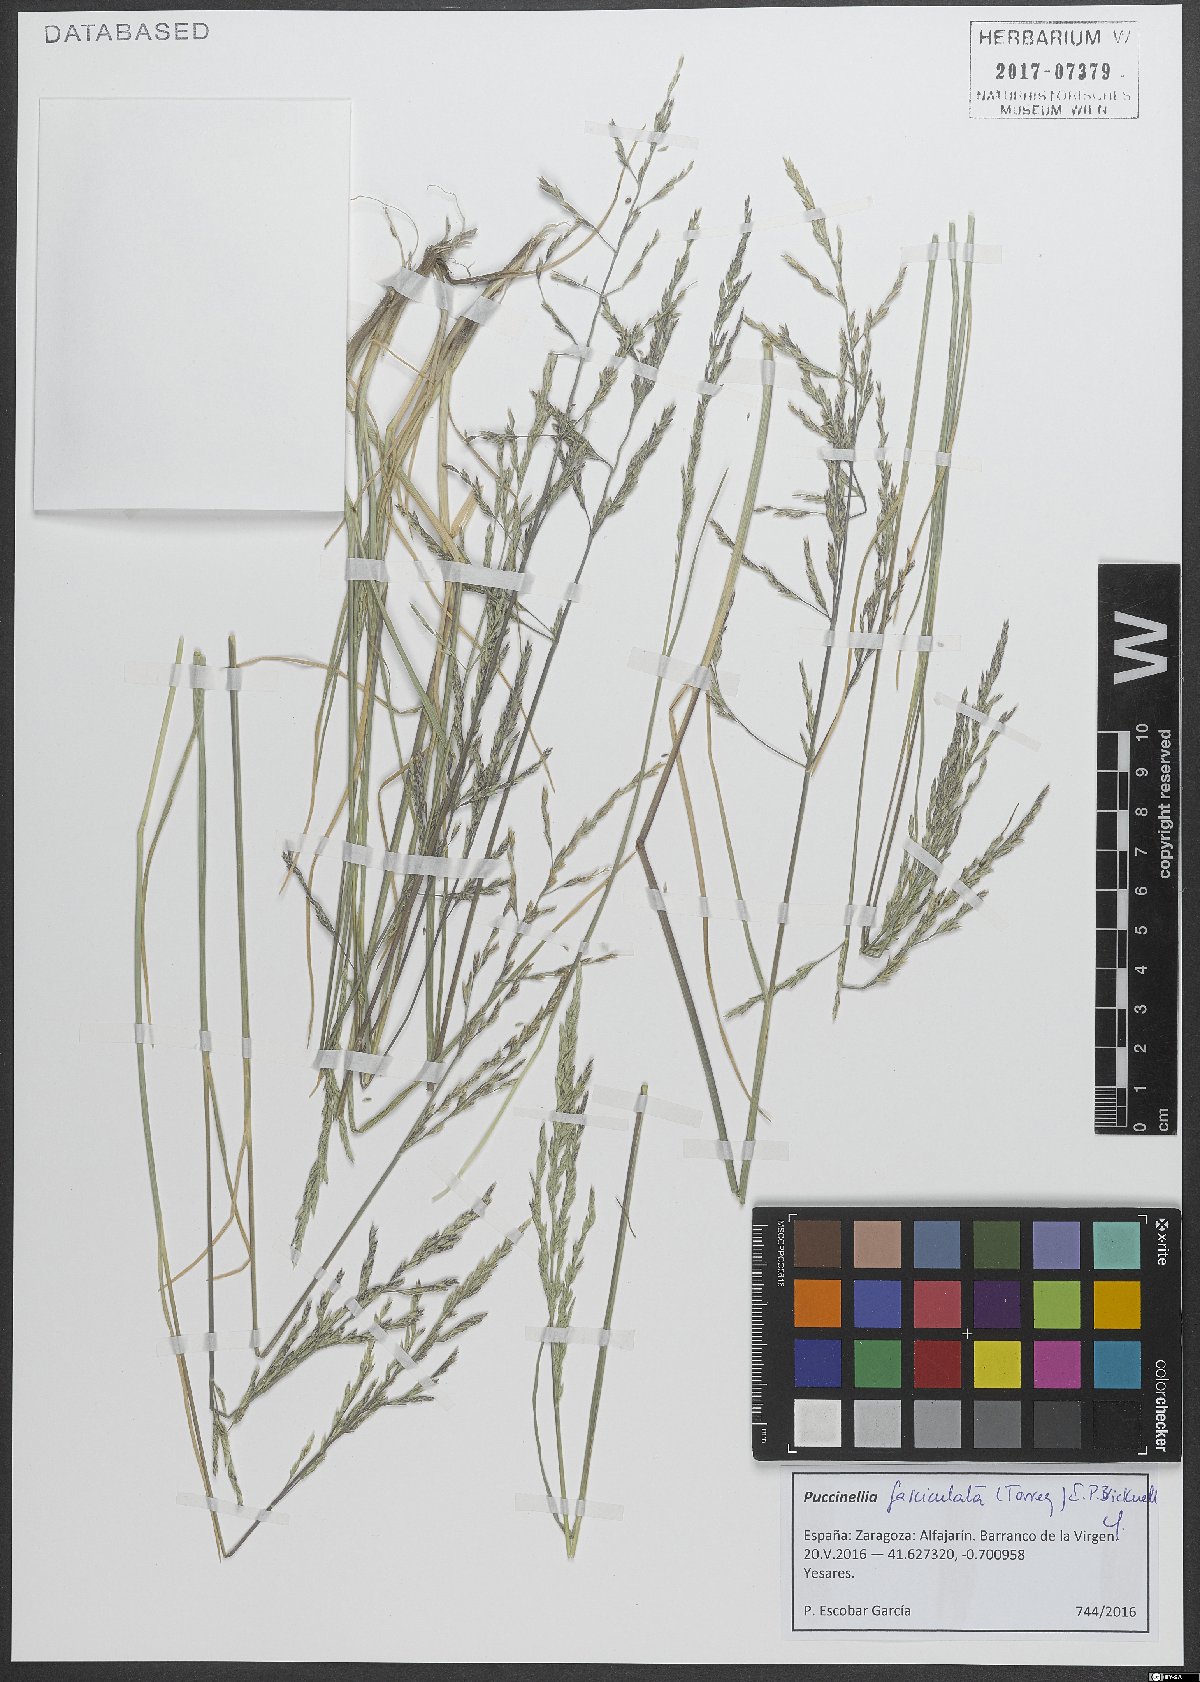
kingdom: Plantae
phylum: Tracheophyta
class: Liliopsida
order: Poales
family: Poaceae
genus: Puccinellia
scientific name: Puccinellia fasciculata
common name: Borrer's saltmarsh-grass
